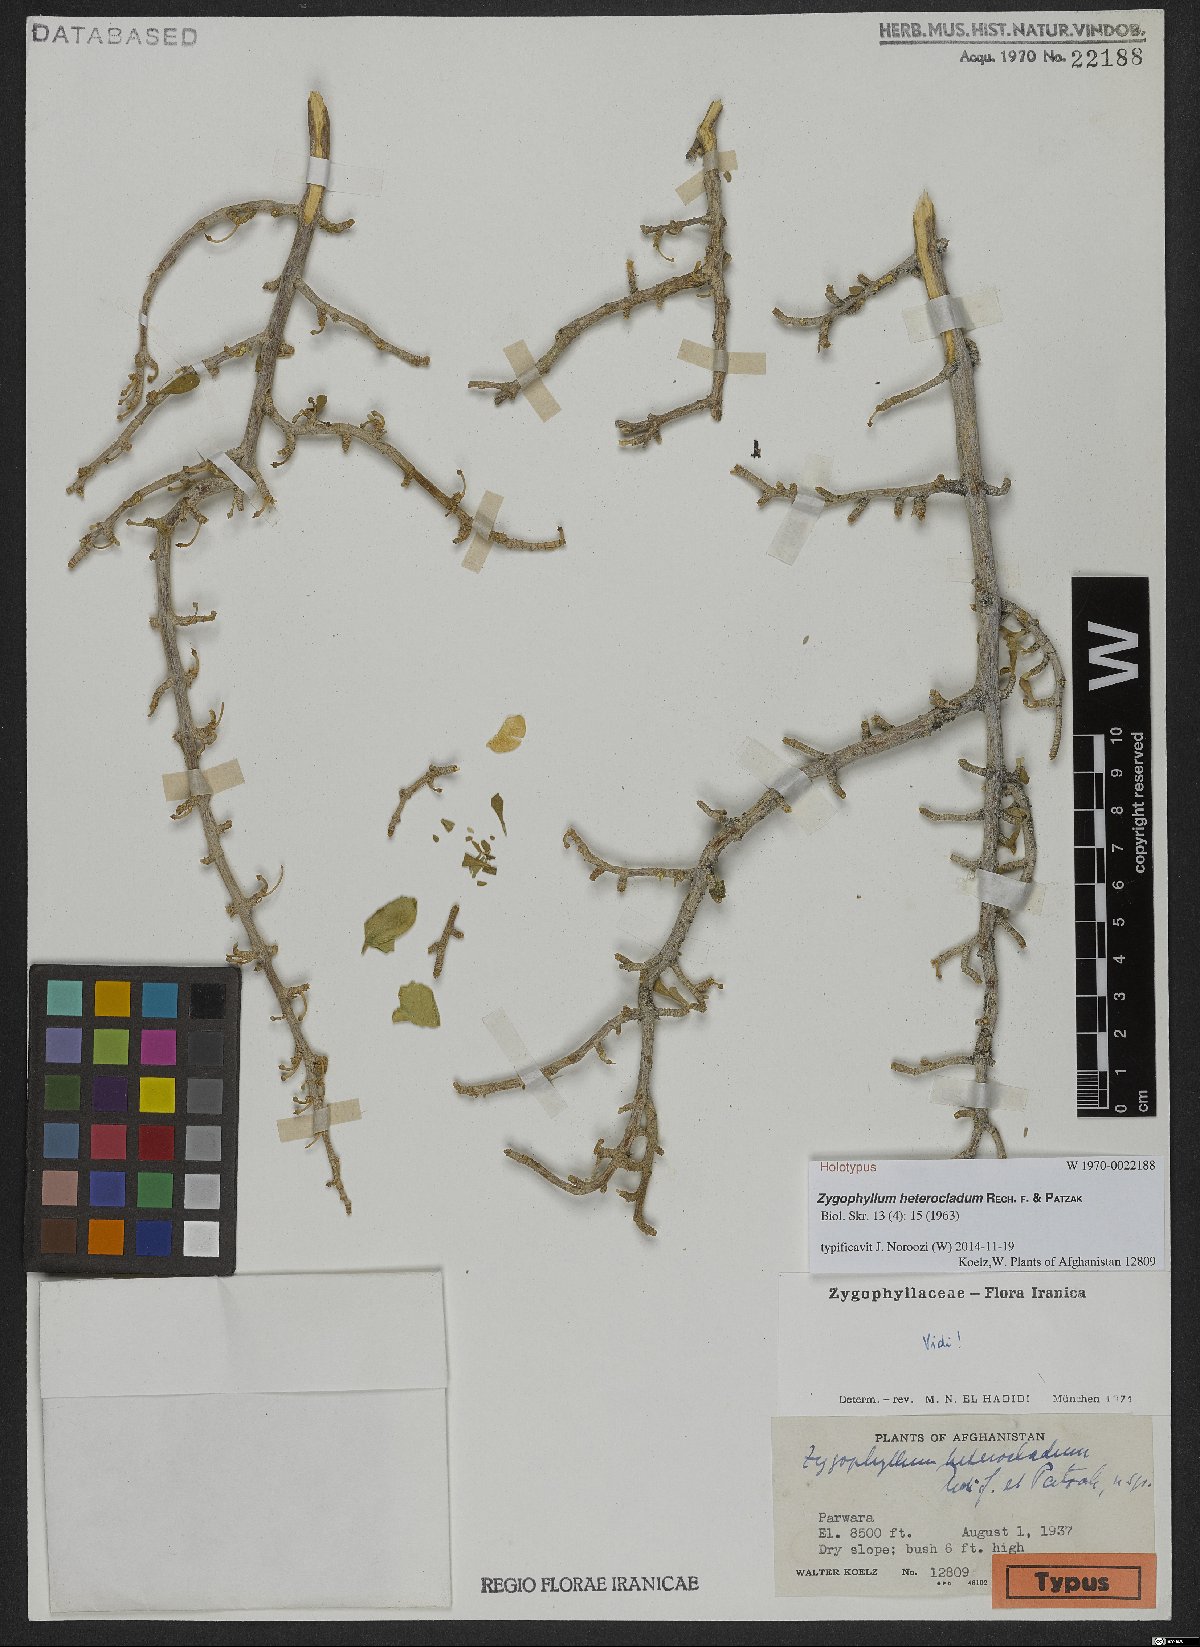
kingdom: Plantae
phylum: Tracheophyta
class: Magnoliopsida
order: Zygophyllales
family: Zygophyllaceae
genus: Zygophyllum
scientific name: Zygophyllum heterocladum
